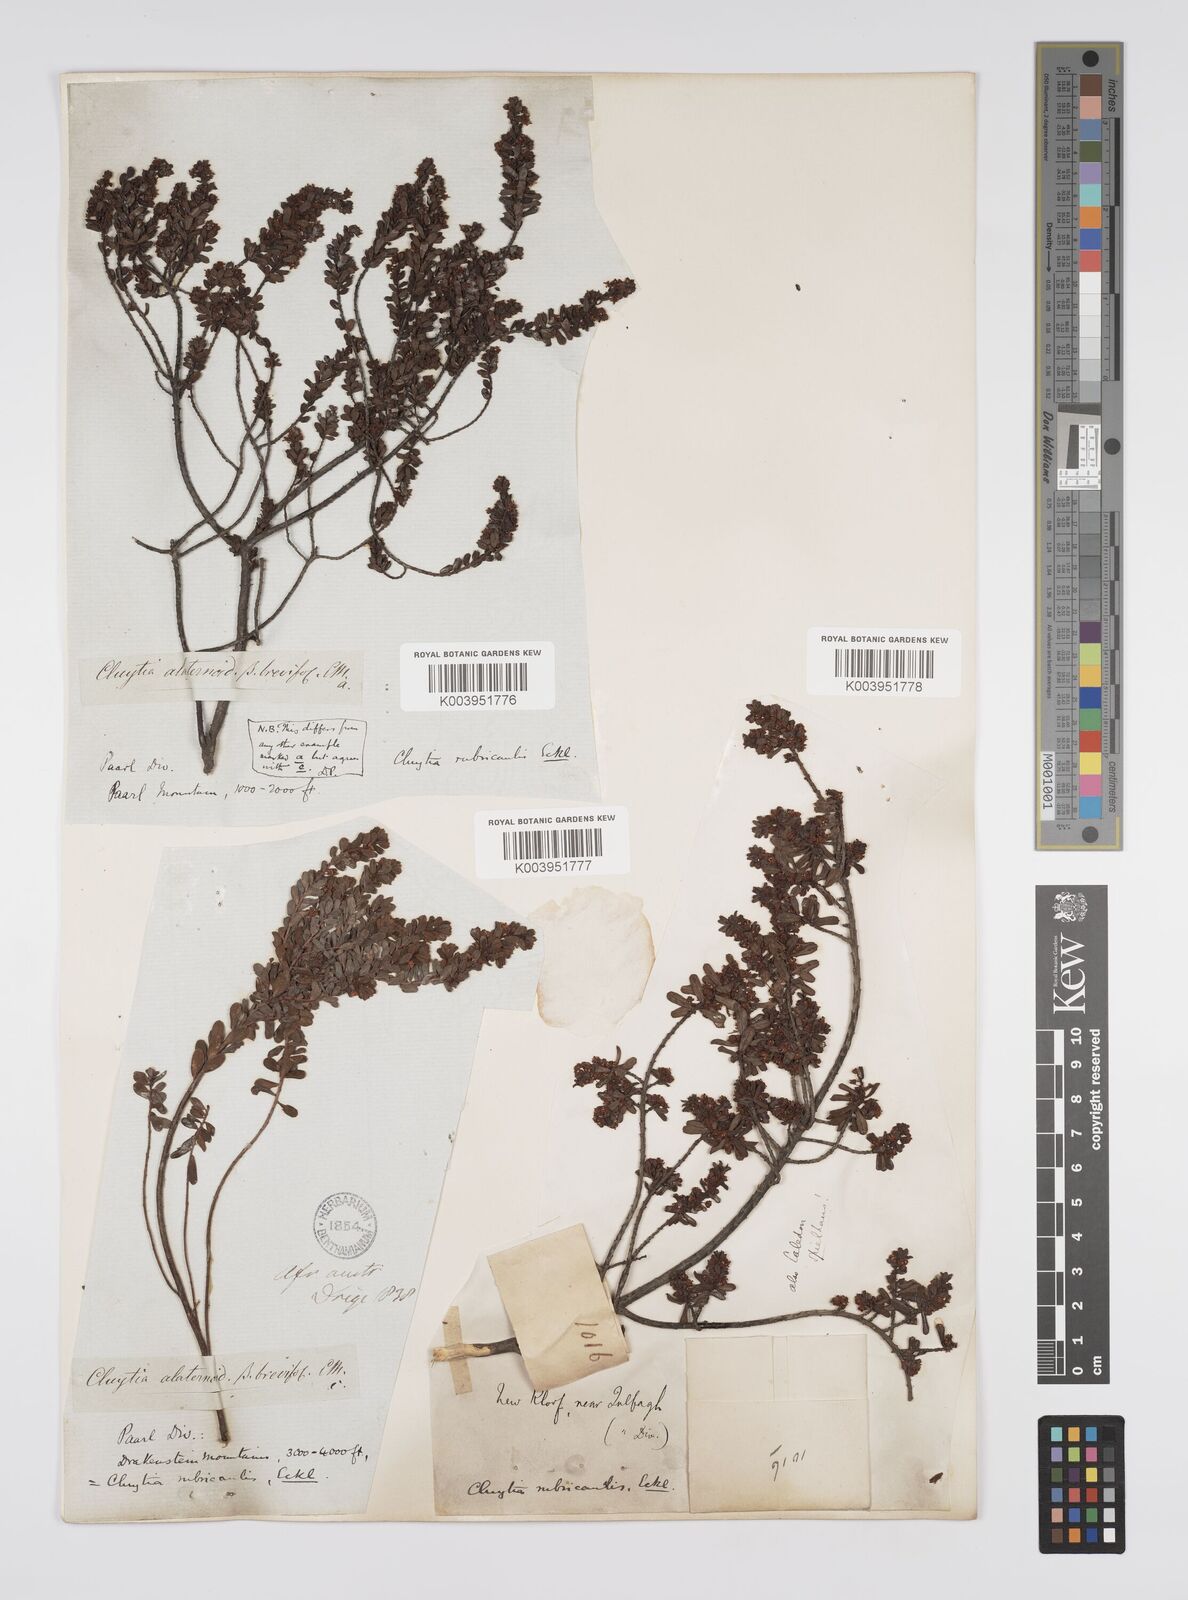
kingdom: Plantae
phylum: Tracheophyta
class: Magnoliopsida
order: Malpighiales
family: Peraceae
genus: Clutia
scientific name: Clutia rubricaulis
